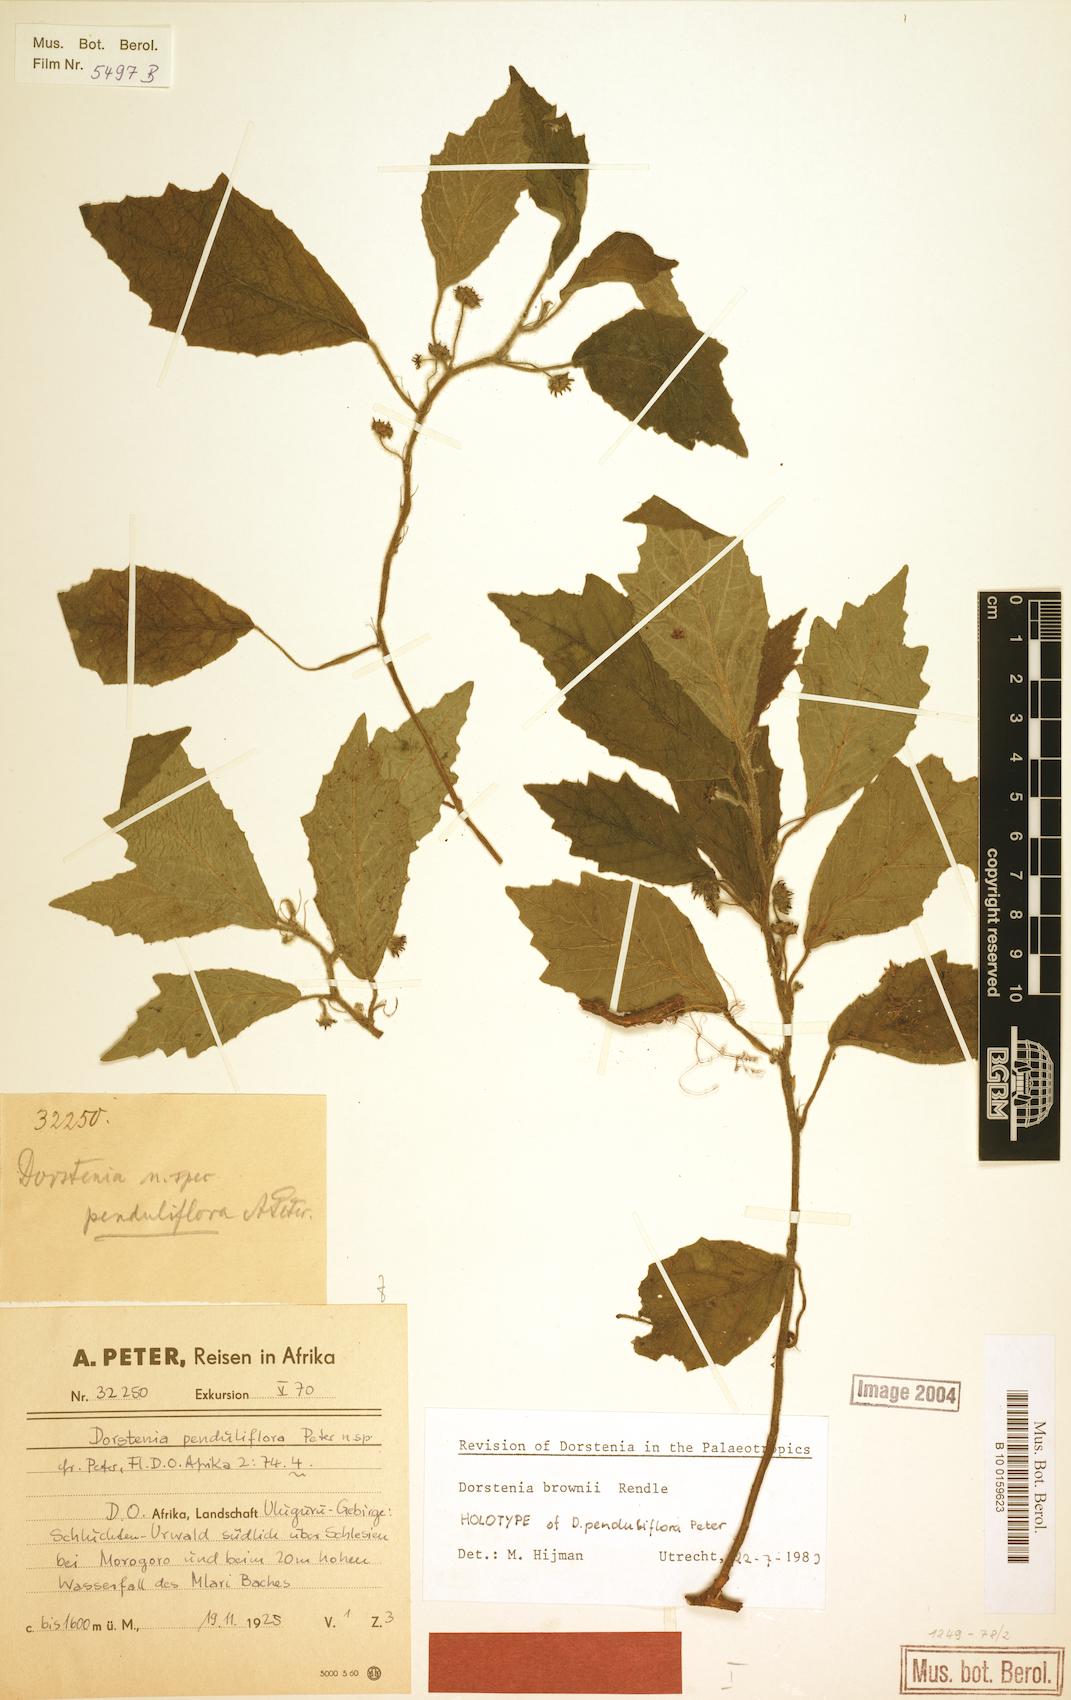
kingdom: Plantae
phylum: Tracheophyta
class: Magnoliopsida
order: Rosales
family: Moraceae
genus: Dorstenia
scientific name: Dorstenia brownii
